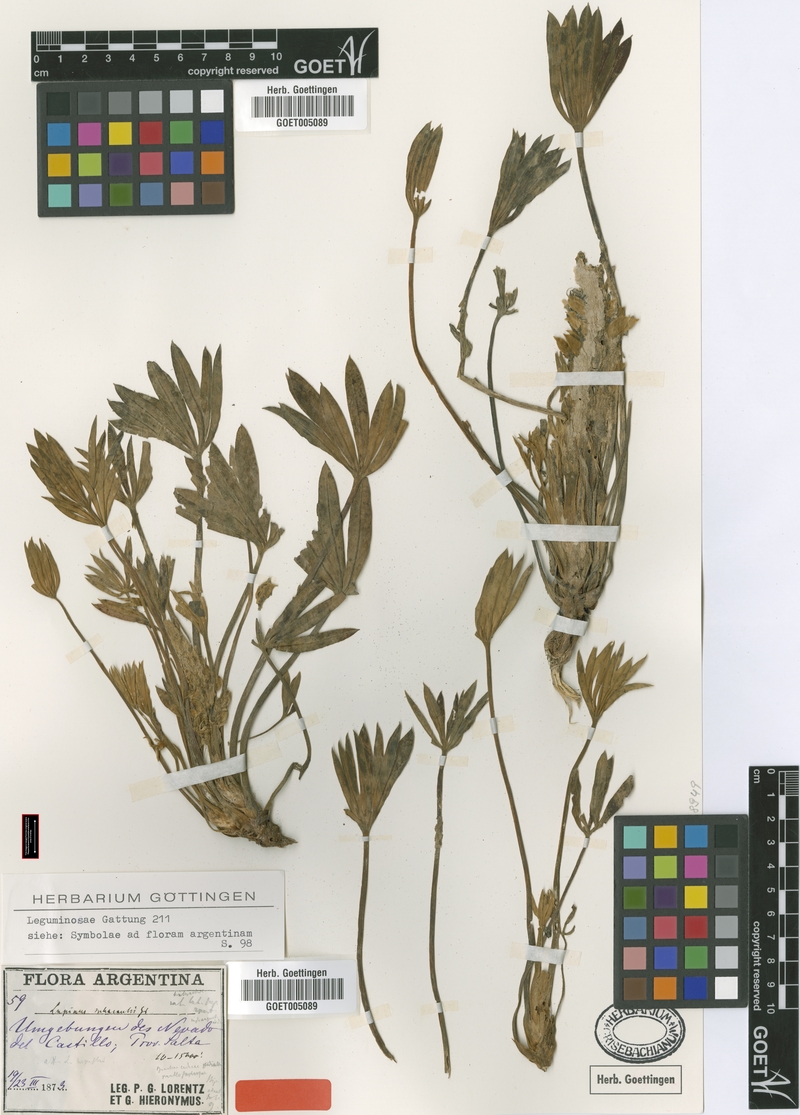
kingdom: Plantae
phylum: Tracheophyta
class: Magnoliopsida
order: Fabales
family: Fabaceae
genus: Lupinus
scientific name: Lupinus subacaulis
